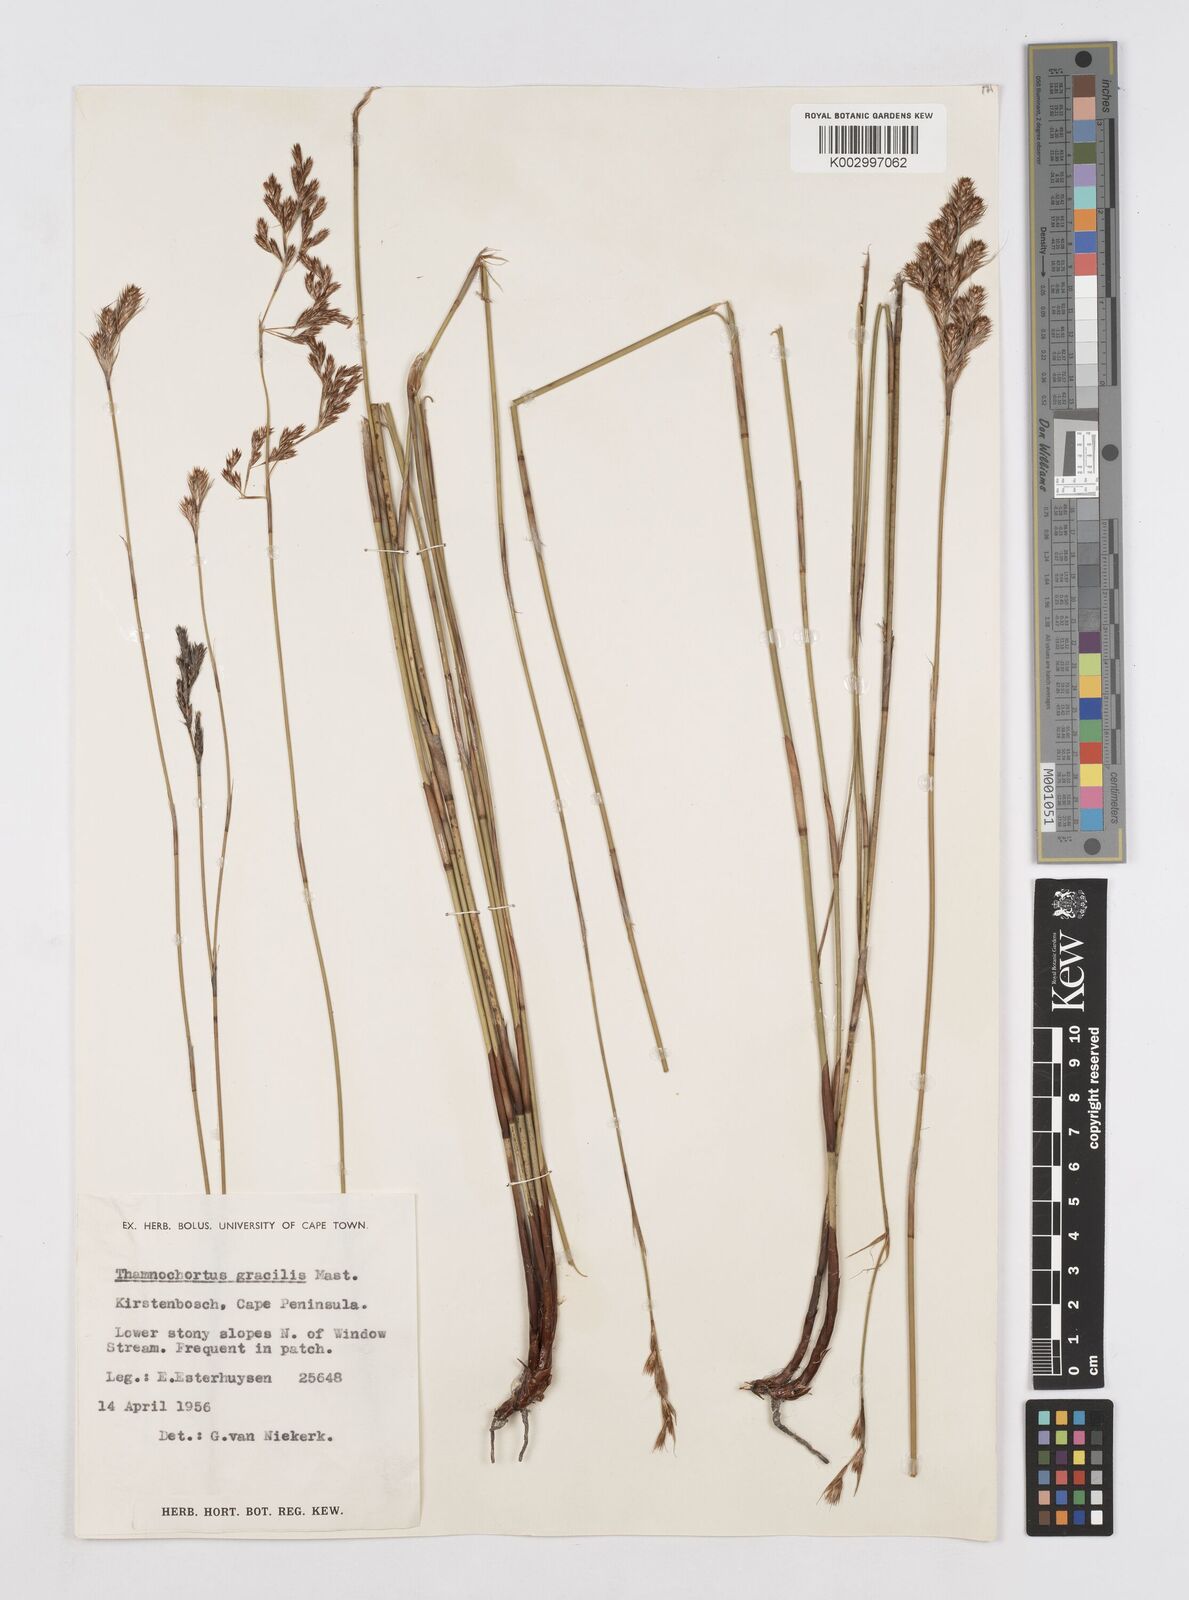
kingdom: Plantae
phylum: Tracheophyta
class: Liliopsida
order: Poales
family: Restionaceae
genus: Thamnochortus
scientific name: Thamnochortus gracilis
